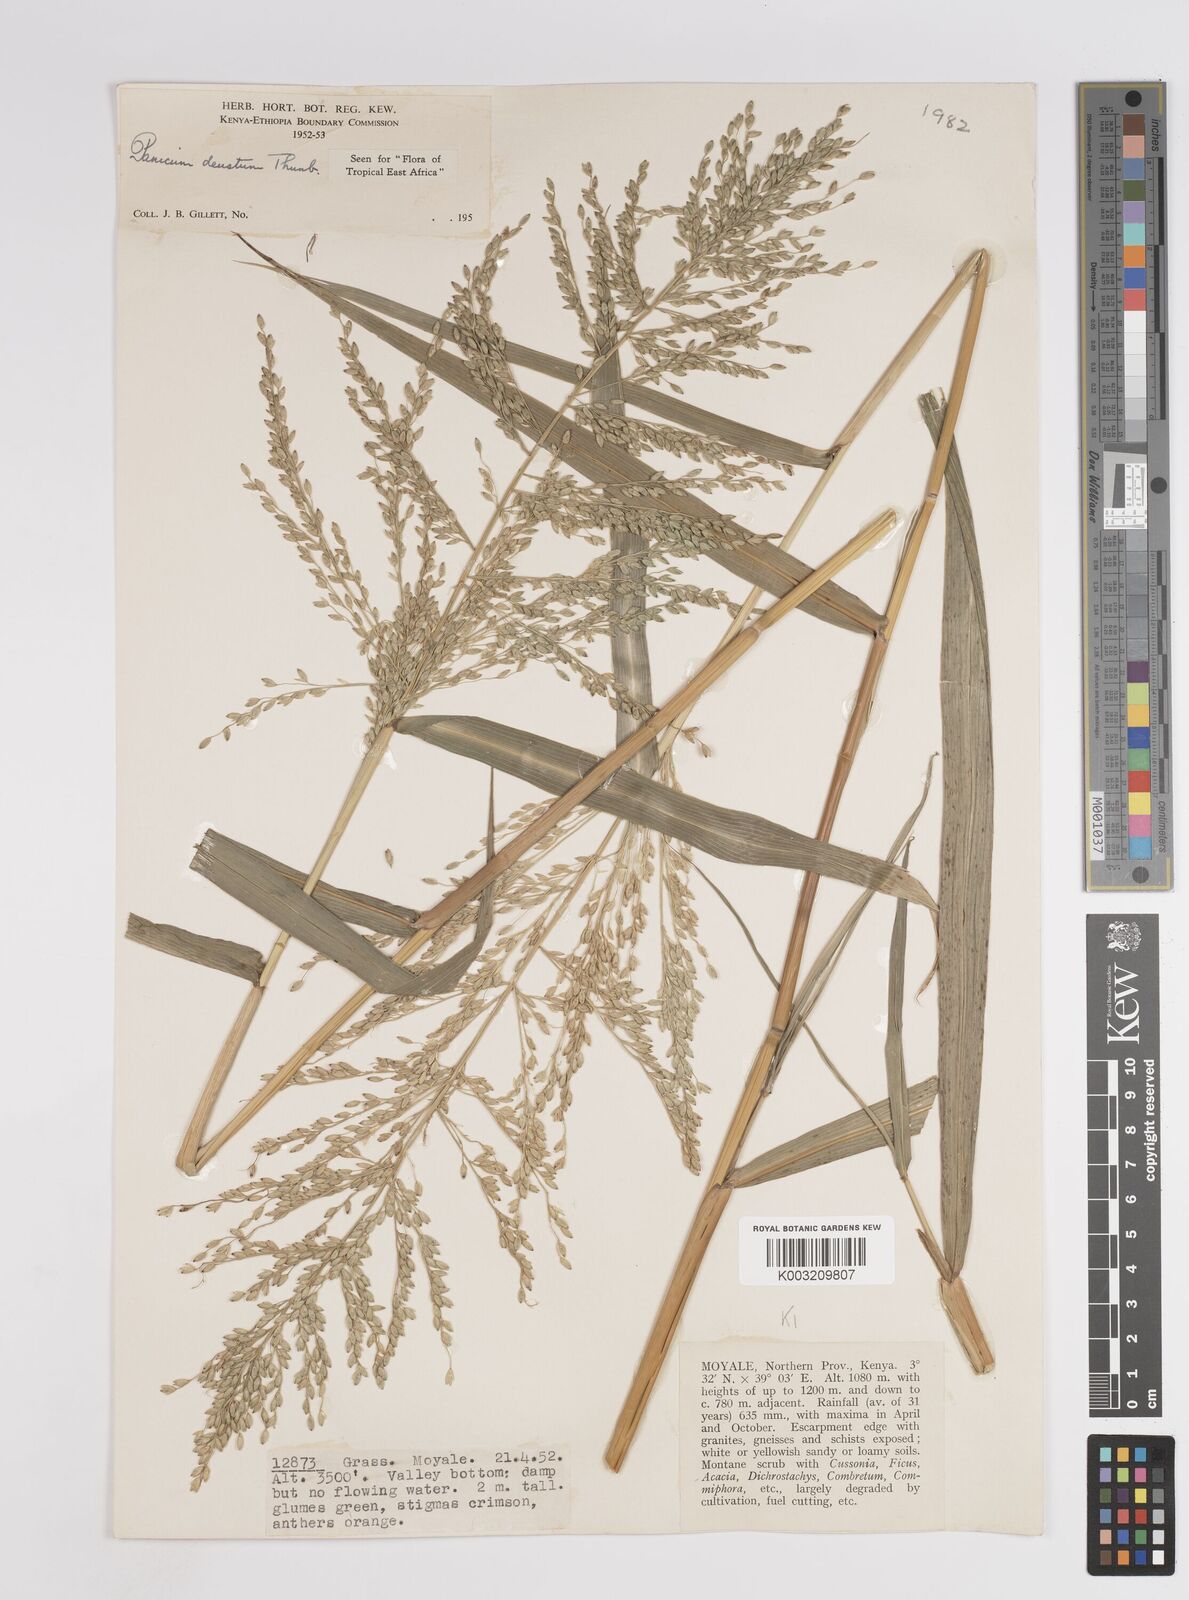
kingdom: Plantae
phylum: Tracheophyta
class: Liliopsida
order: Poales
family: Poaceae
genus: Panicum
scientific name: Panicum deustum
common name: Reed panicum
